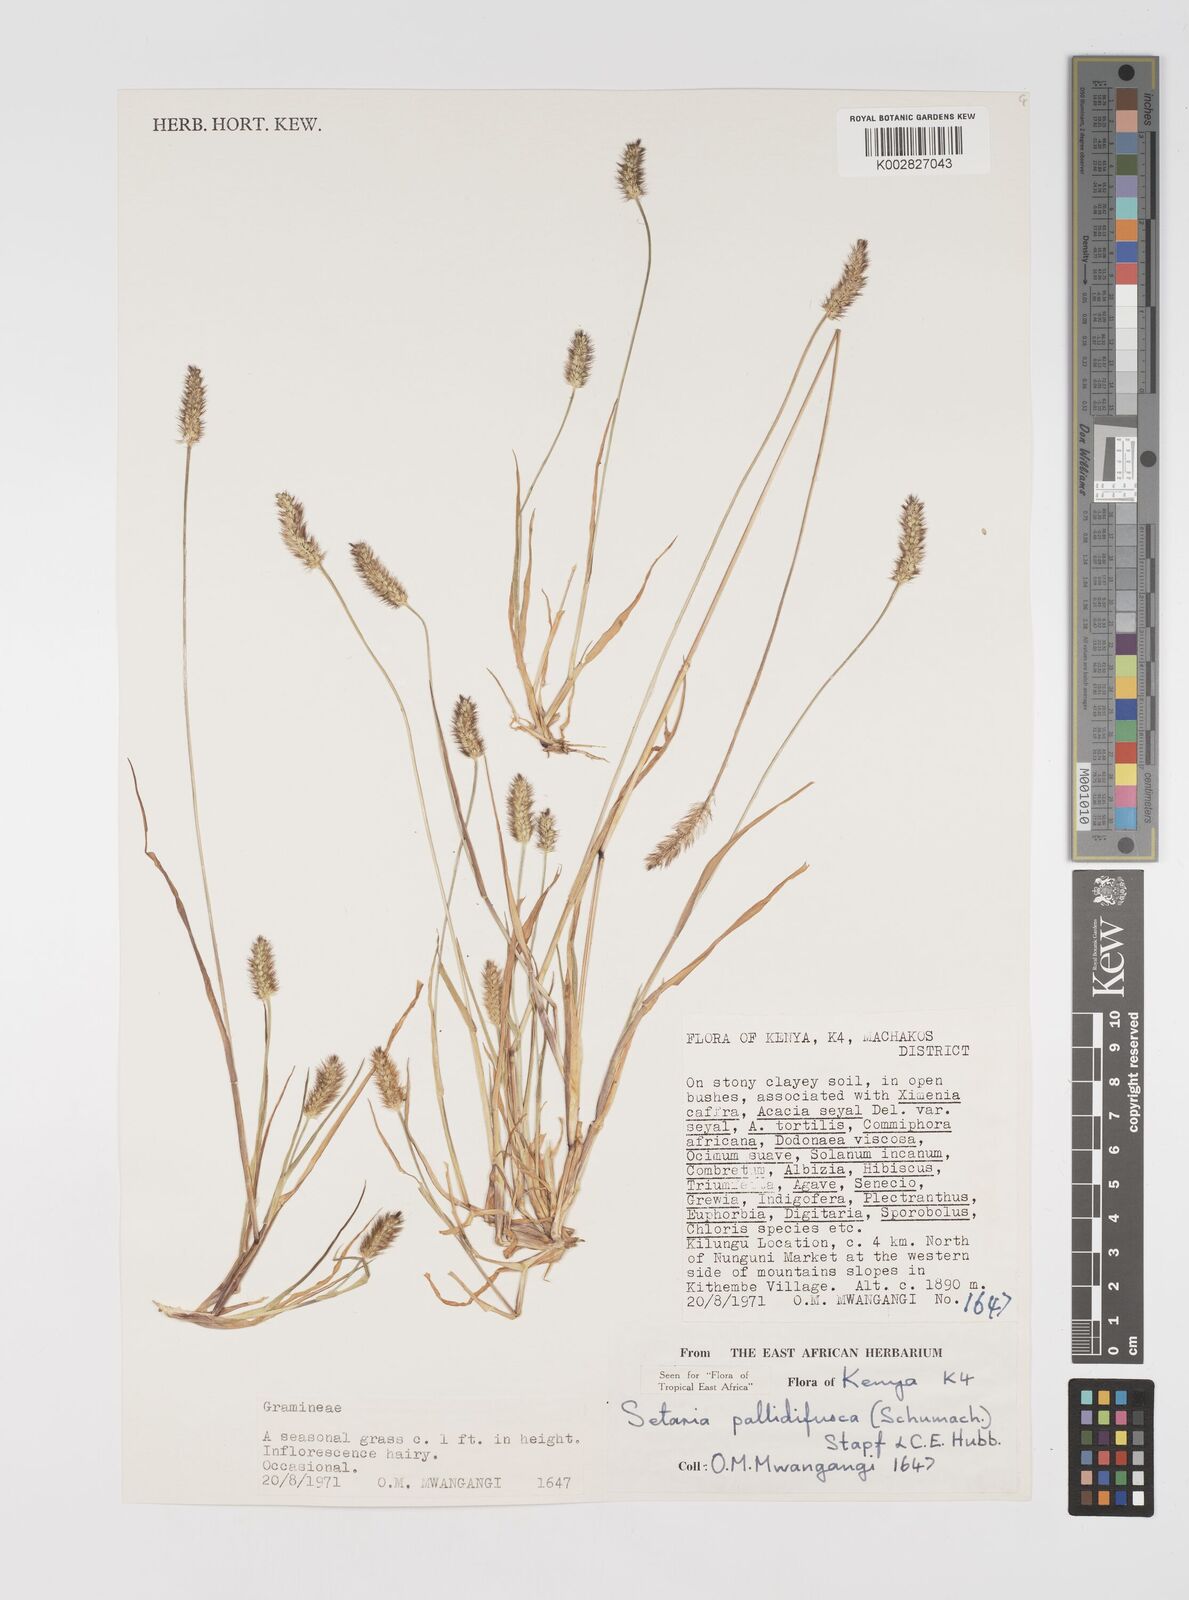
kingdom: Plantae
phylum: Tracheophyta
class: Liliopsida
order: Poales
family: Poaceae
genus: Setaria
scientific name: Setaria pumila
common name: Yellow bristle-grass
